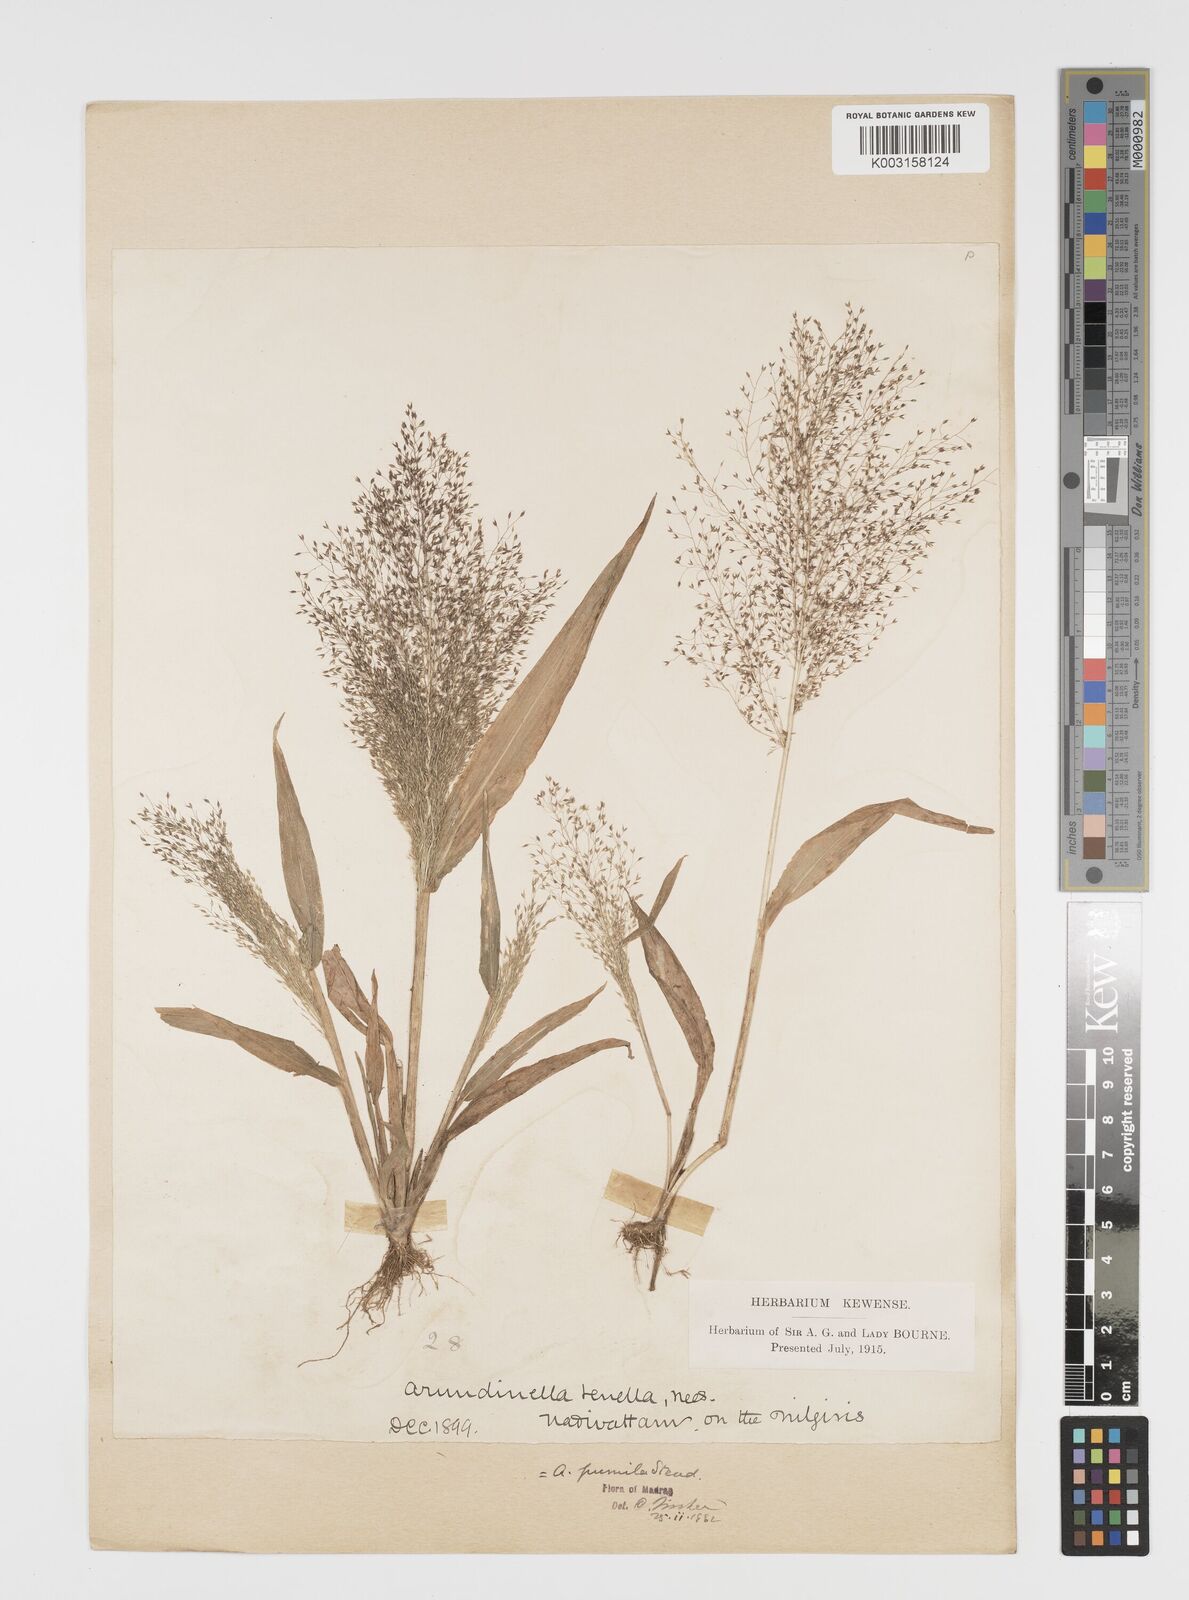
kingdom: Plantae
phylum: Tracheophyta
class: Liliopsida
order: Poales
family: Poaceae
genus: Arundinella
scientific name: Arundinella pumila
